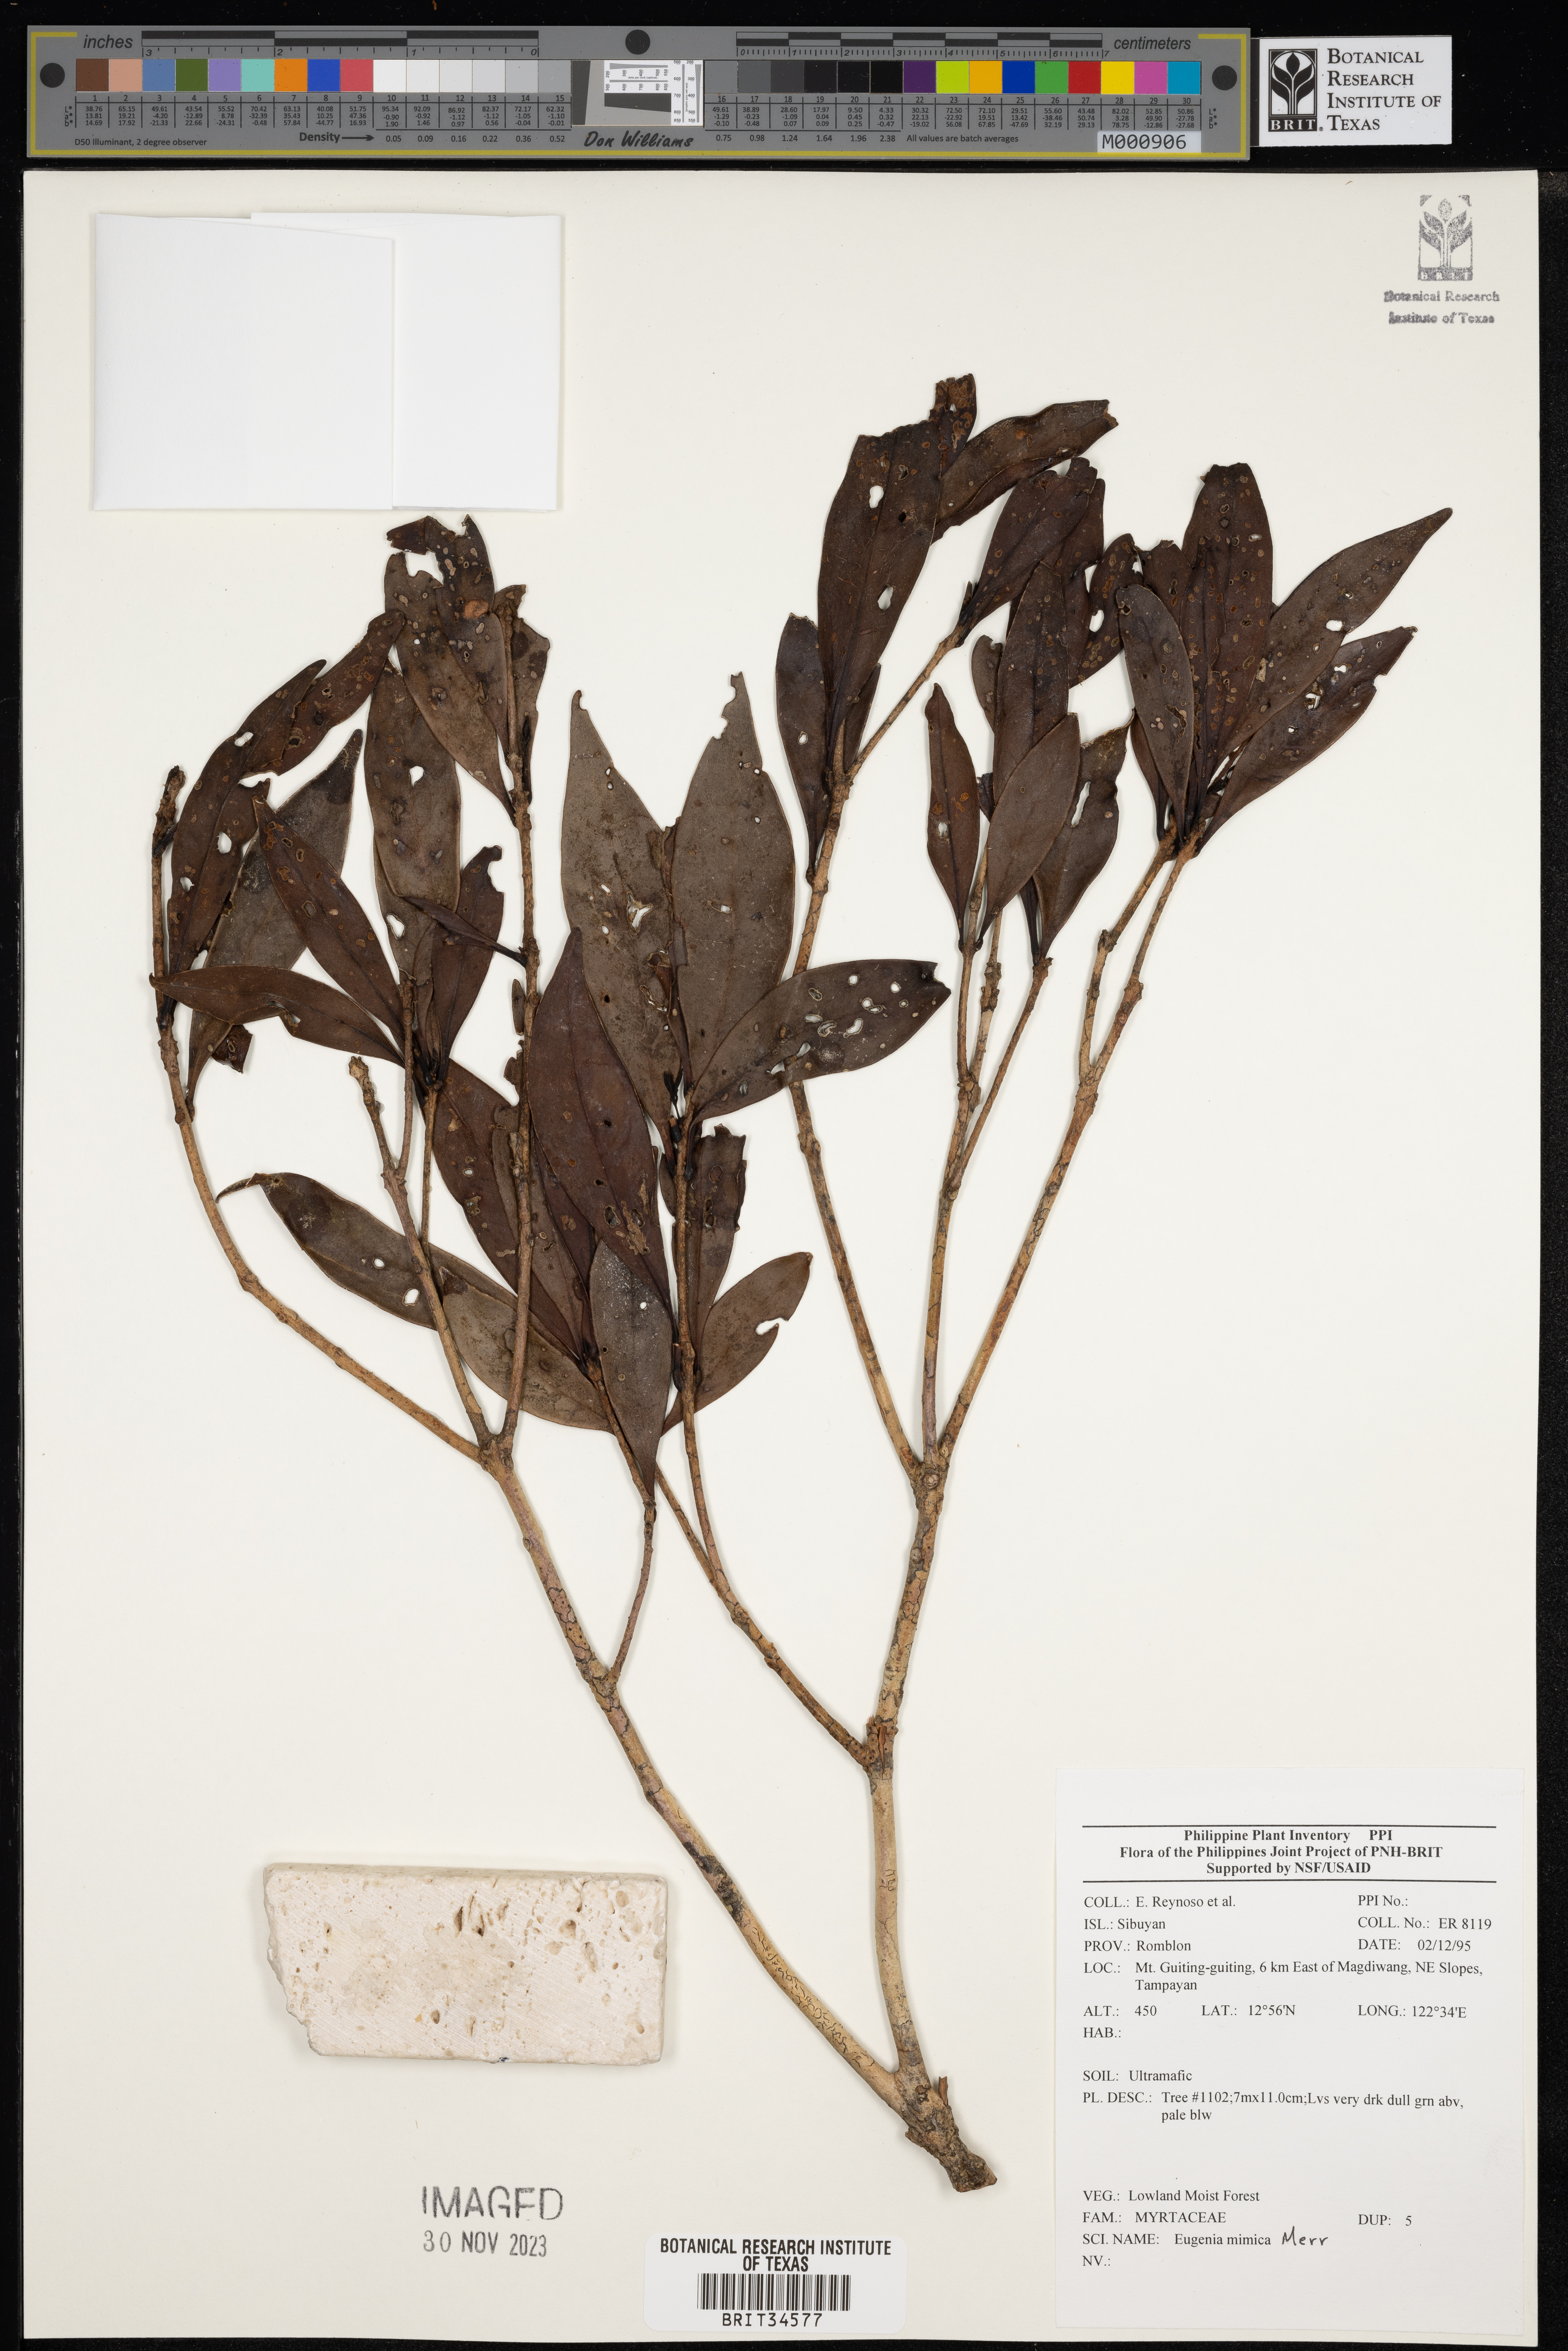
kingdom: Plantae
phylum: Tracheophyta
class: Magnoliopsida
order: Myrtales
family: Myrtaceae
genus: Eugenia
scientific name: Eugenia
